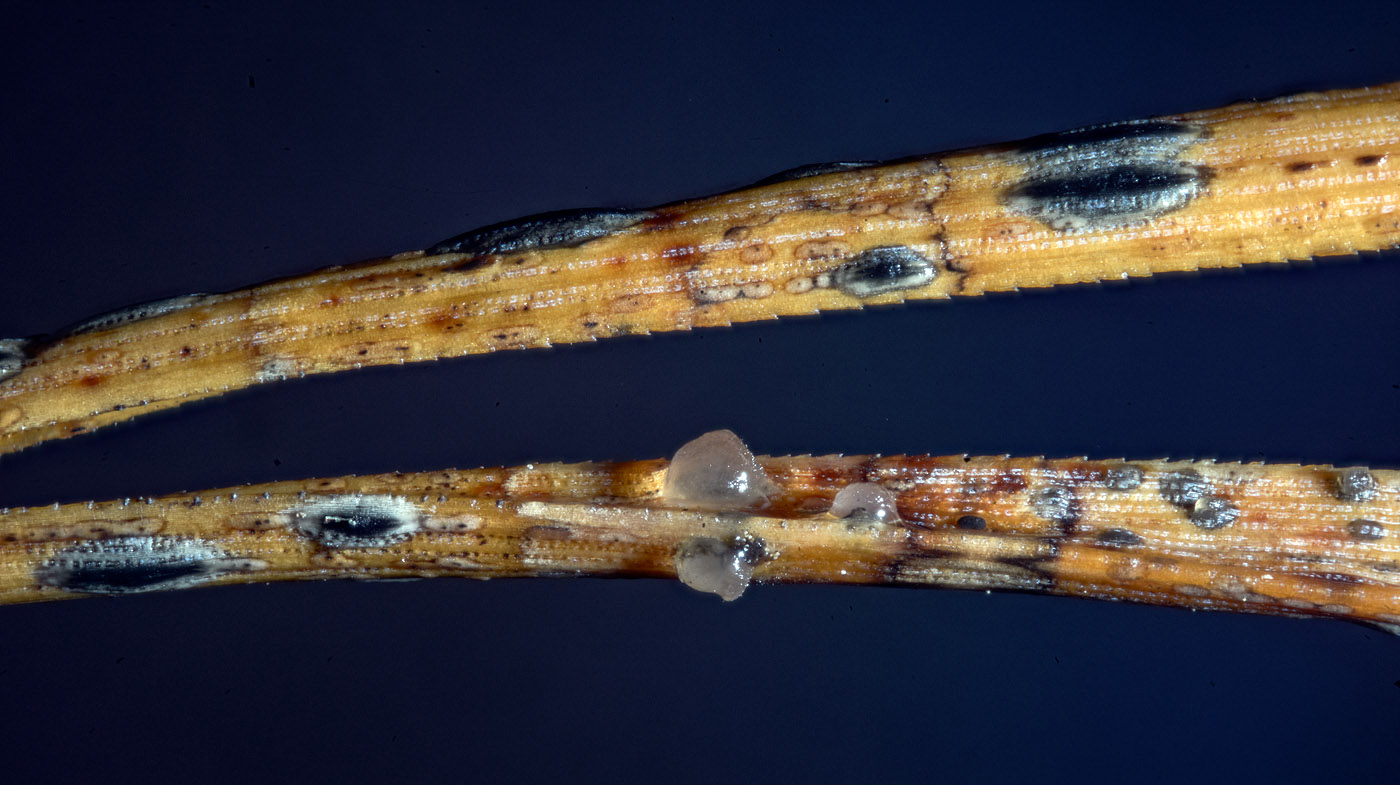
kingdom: Fungi
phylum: Basidiomycota
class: Tremellomycetes
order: Tremellales
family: Tremellaceae
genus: Phaeotremella
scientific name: Phaeotremella translucens
